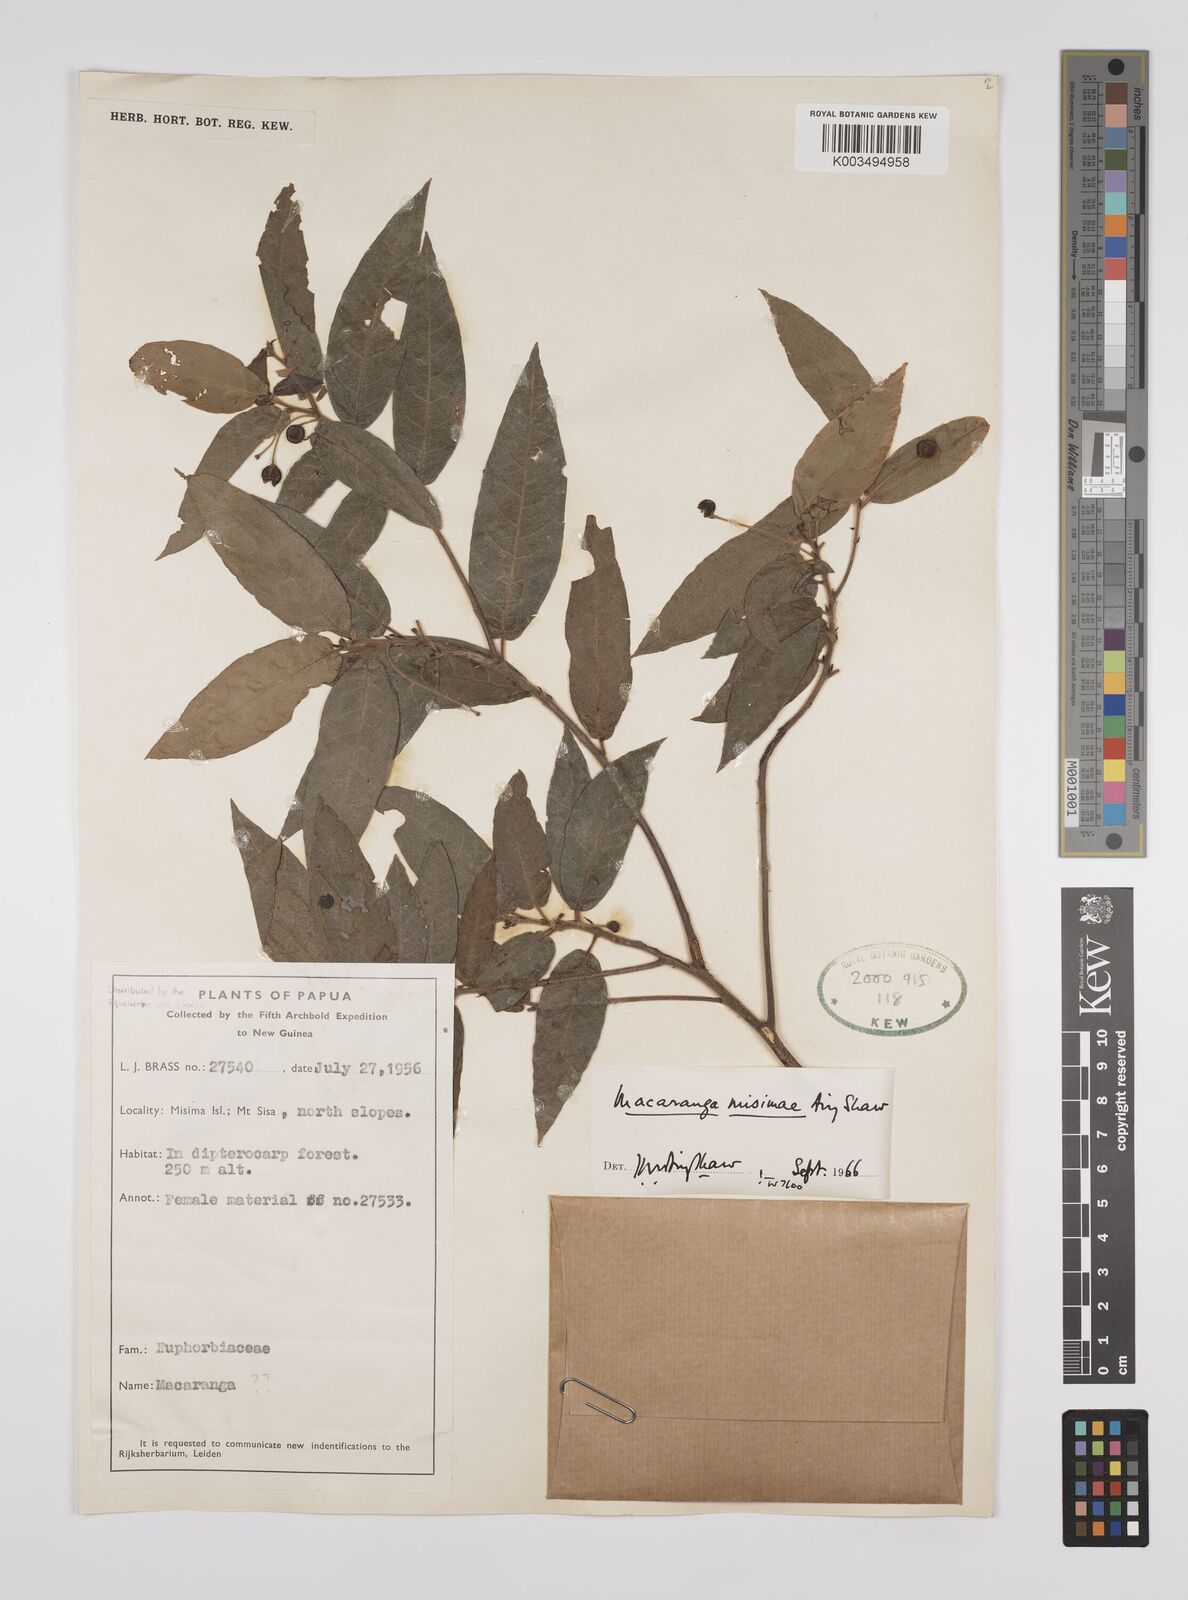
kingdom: Plantae
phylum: Tracheophyta
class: Magnoliopsida
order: Malpighiales
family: Euphorbiaceae
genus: Macaranga
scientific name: Macaranga misimae
